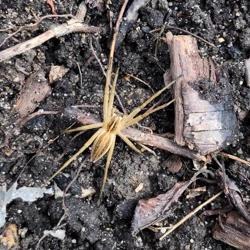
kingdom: Animalia
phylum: Arthropoda
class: Arachnida
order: Araneae
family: Pisauridae
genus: Pisaura
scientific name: Pisaura mirabilis
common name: Almindelig rovedderkop
